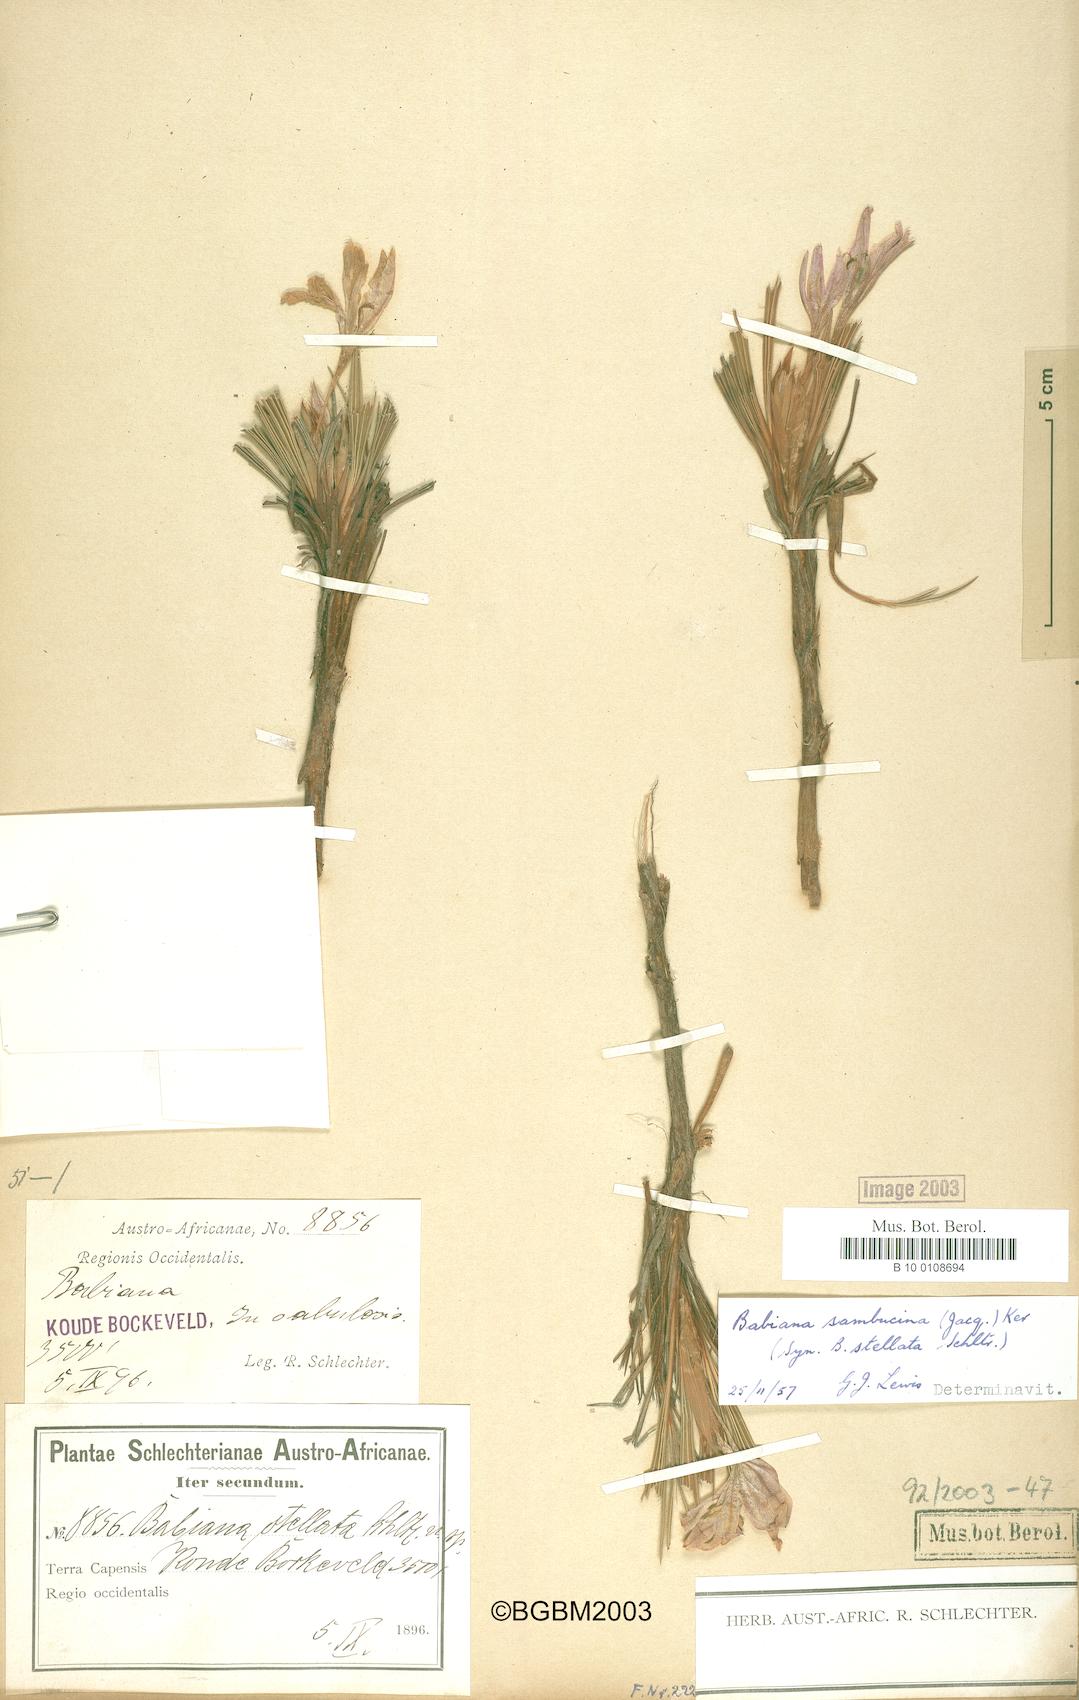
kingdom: Plantae
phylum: Tracheophyta
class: Liliopsida
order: Asparagales
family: Iridaceae
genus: Babiana
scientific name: Babiana sambucina
